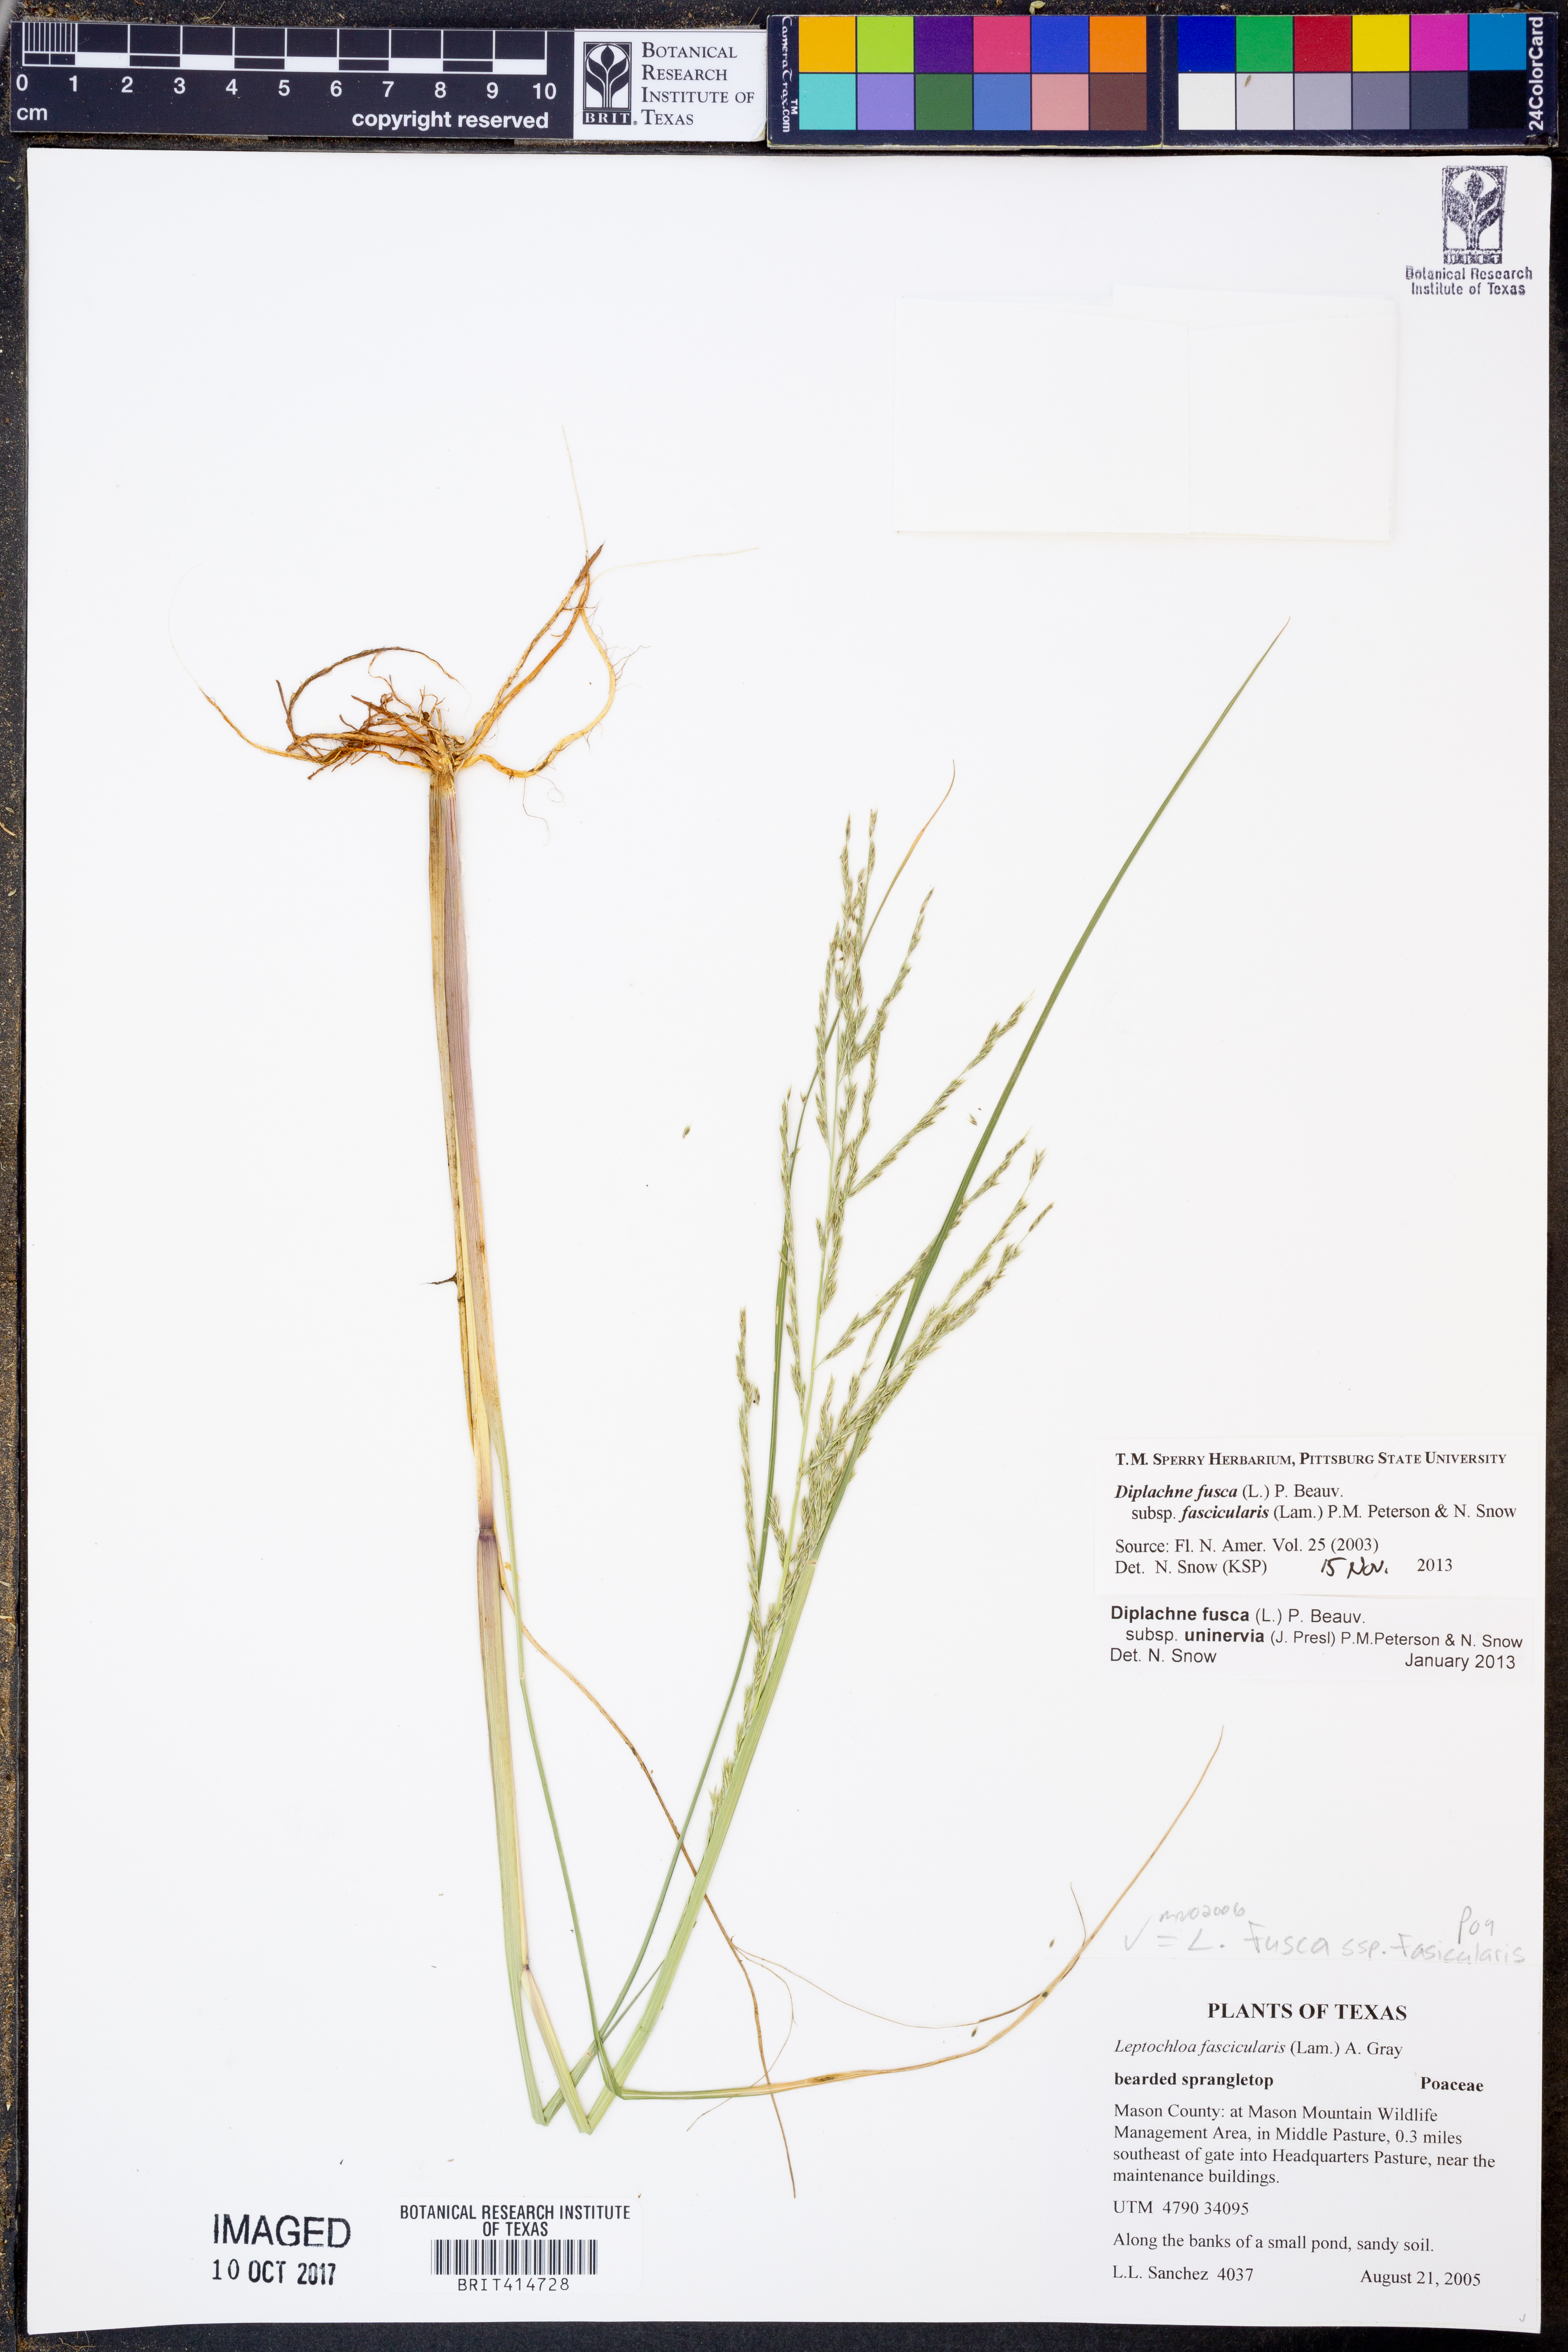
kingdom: Plantae
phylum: Tracheophyta
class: Liliopsida
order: Poales
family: Poaceae
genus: Diplachne
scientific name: Diplachne fusca
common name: Brown beetle grass
